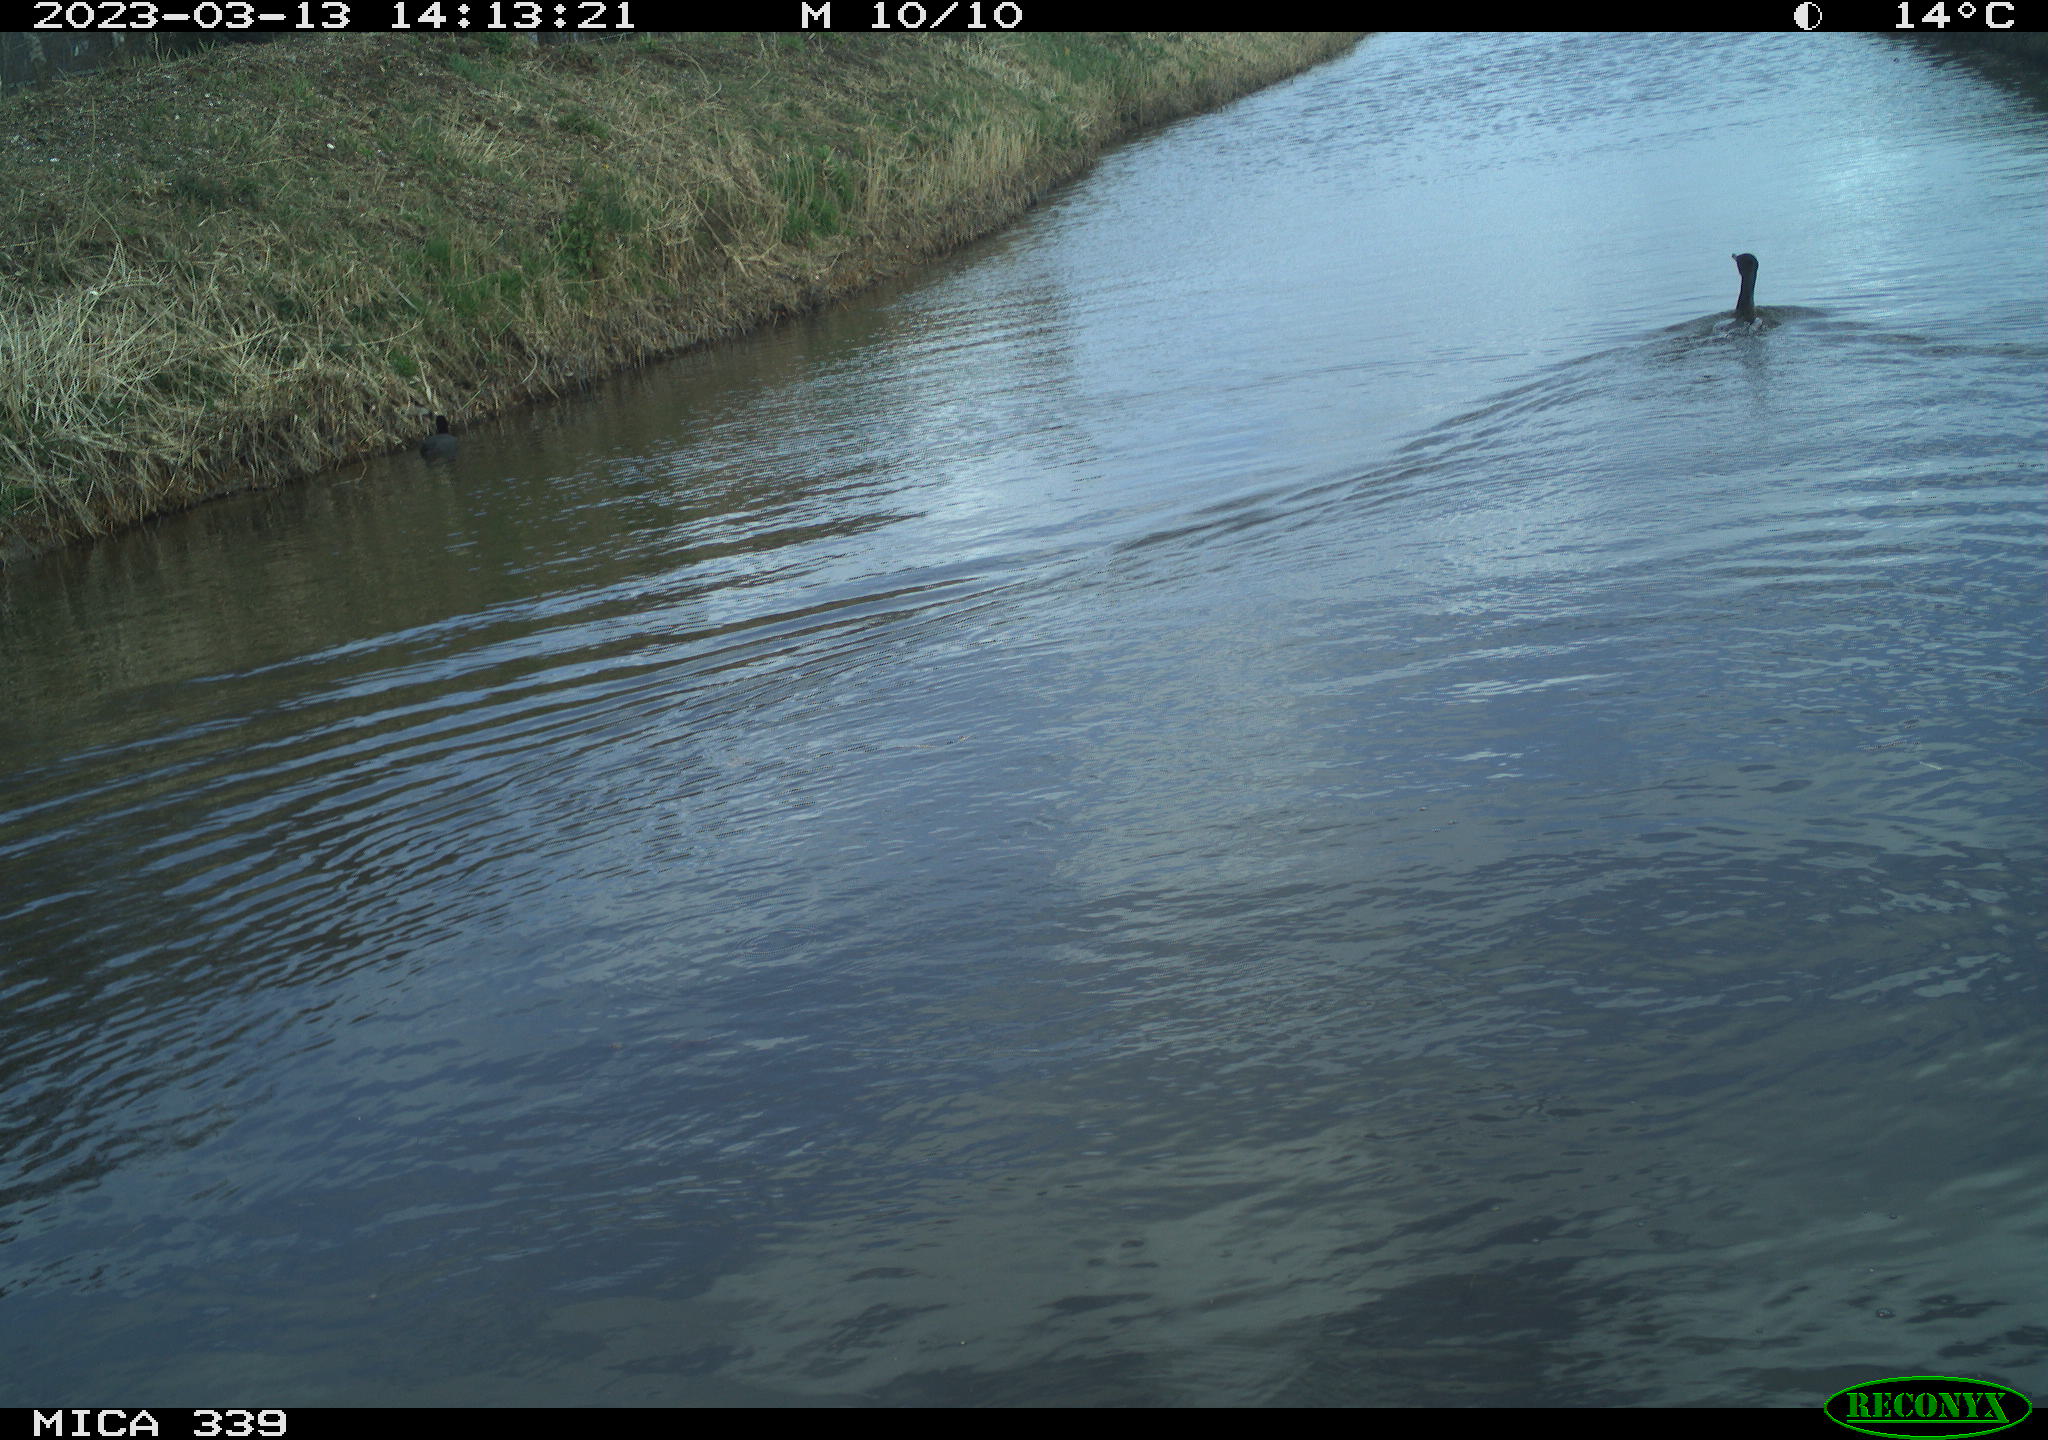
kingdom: Animalia
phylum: Chordata
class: Aves
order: Suliformes
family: Phalacrocoracidae
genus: Phalacrocorax
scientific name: Phalacrocorax carbo
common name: Great cormorant
